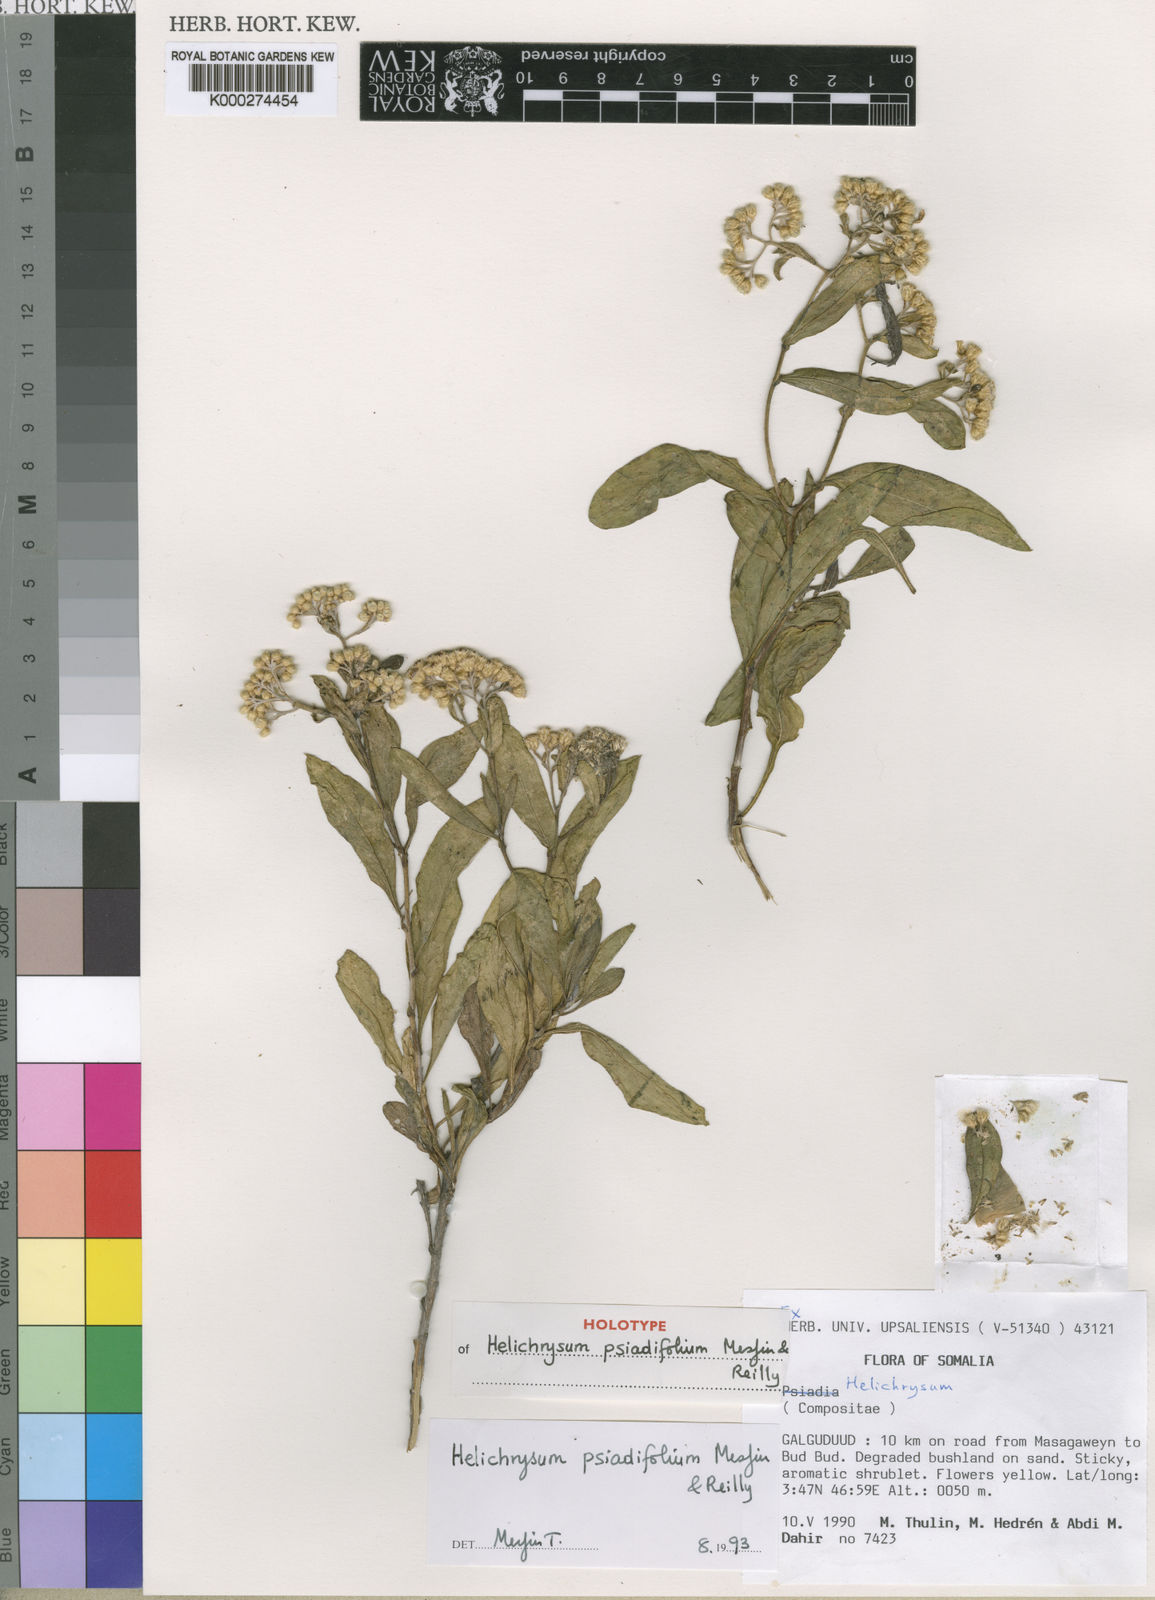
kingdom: Plantae
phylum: Tracheophyta
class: Magnoliopsida
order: Asterales
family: Asteraceae
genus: Helichrysum
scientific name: Helichrysum psiadiifolium
